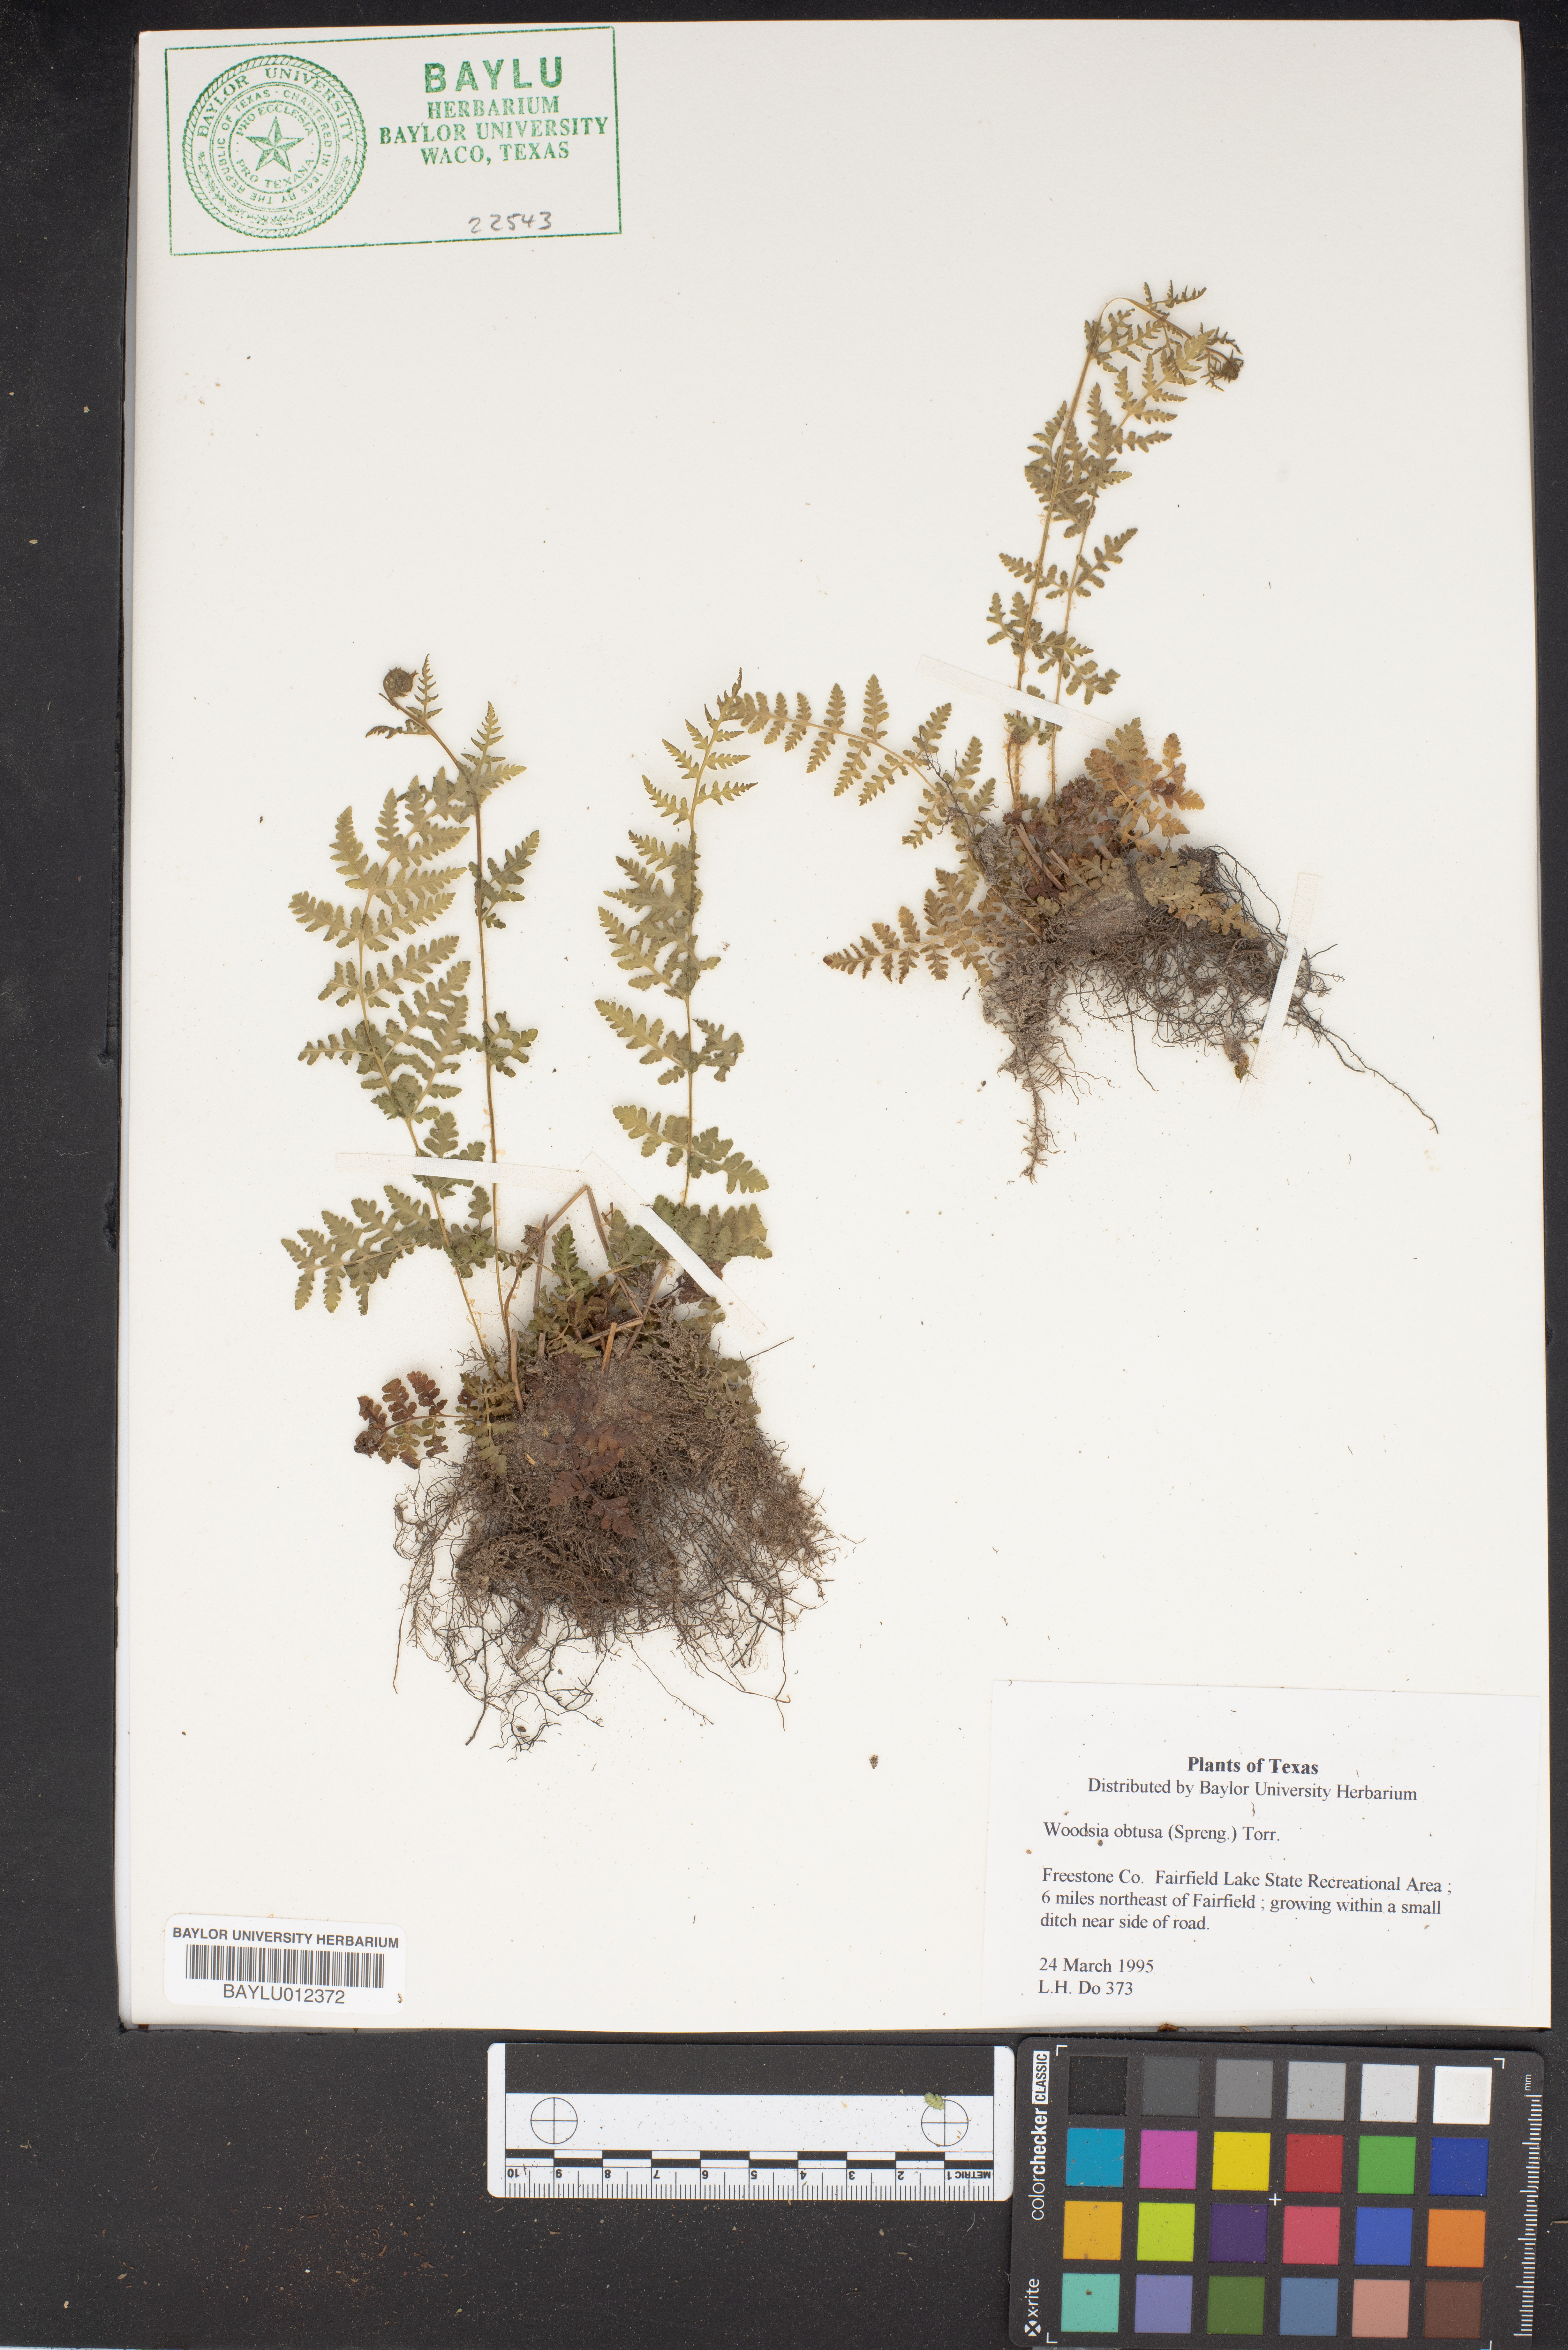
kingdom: Plantae
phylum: Tracheophyta
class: Polypodiopsida
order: Polypodiales
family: Woodsiaceae
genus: Physematium
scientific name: Physematium obtusum
